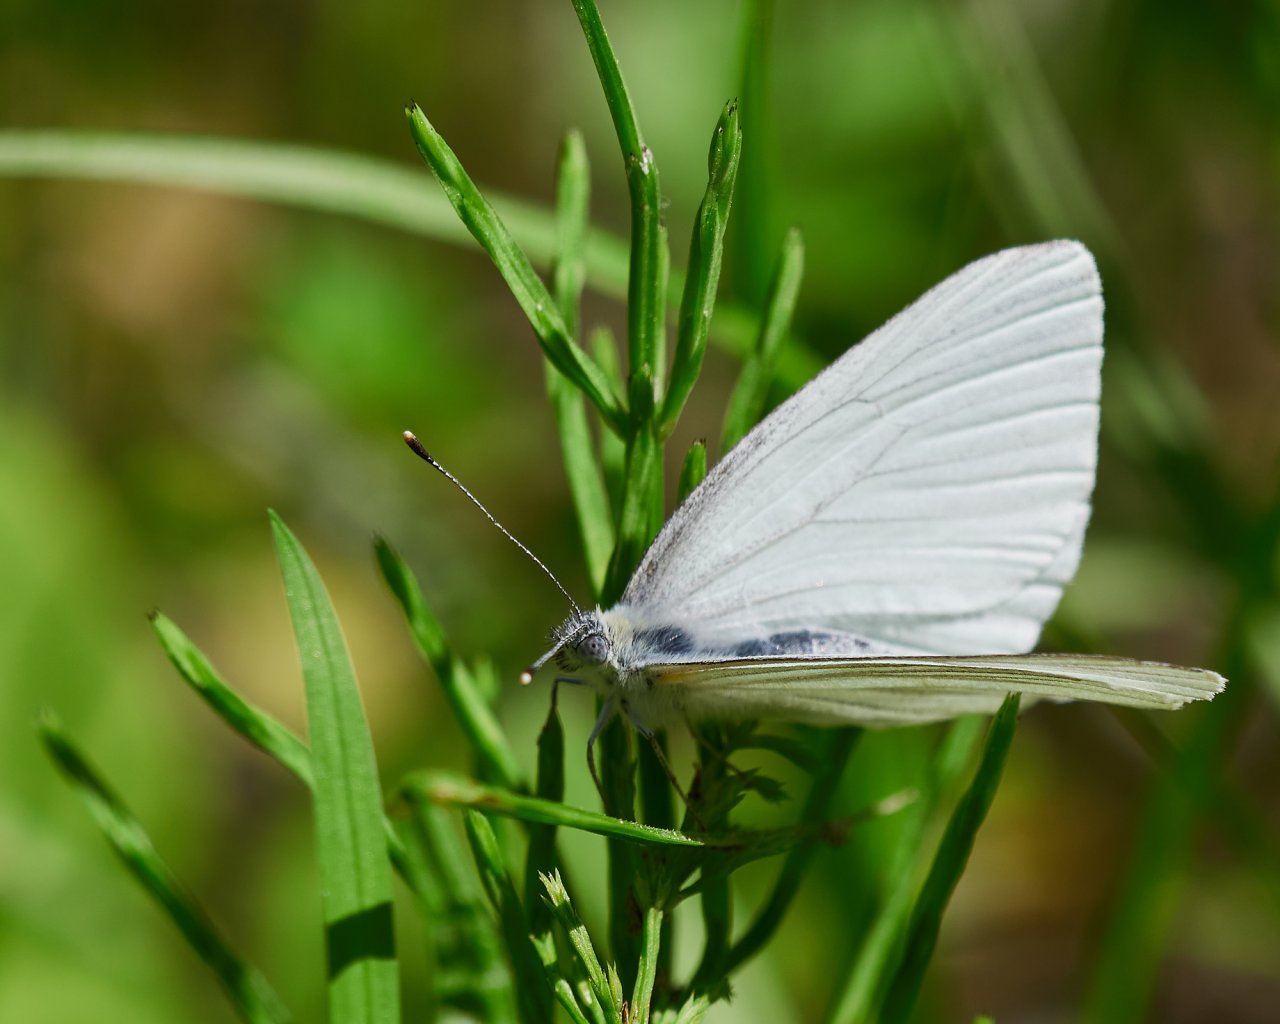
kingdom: Animalia
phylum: Arthropoda
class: Insecta
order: Lepidoptera
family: Pieridae
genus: Pieris
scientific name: Pieris oleracea
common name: Mustard White
